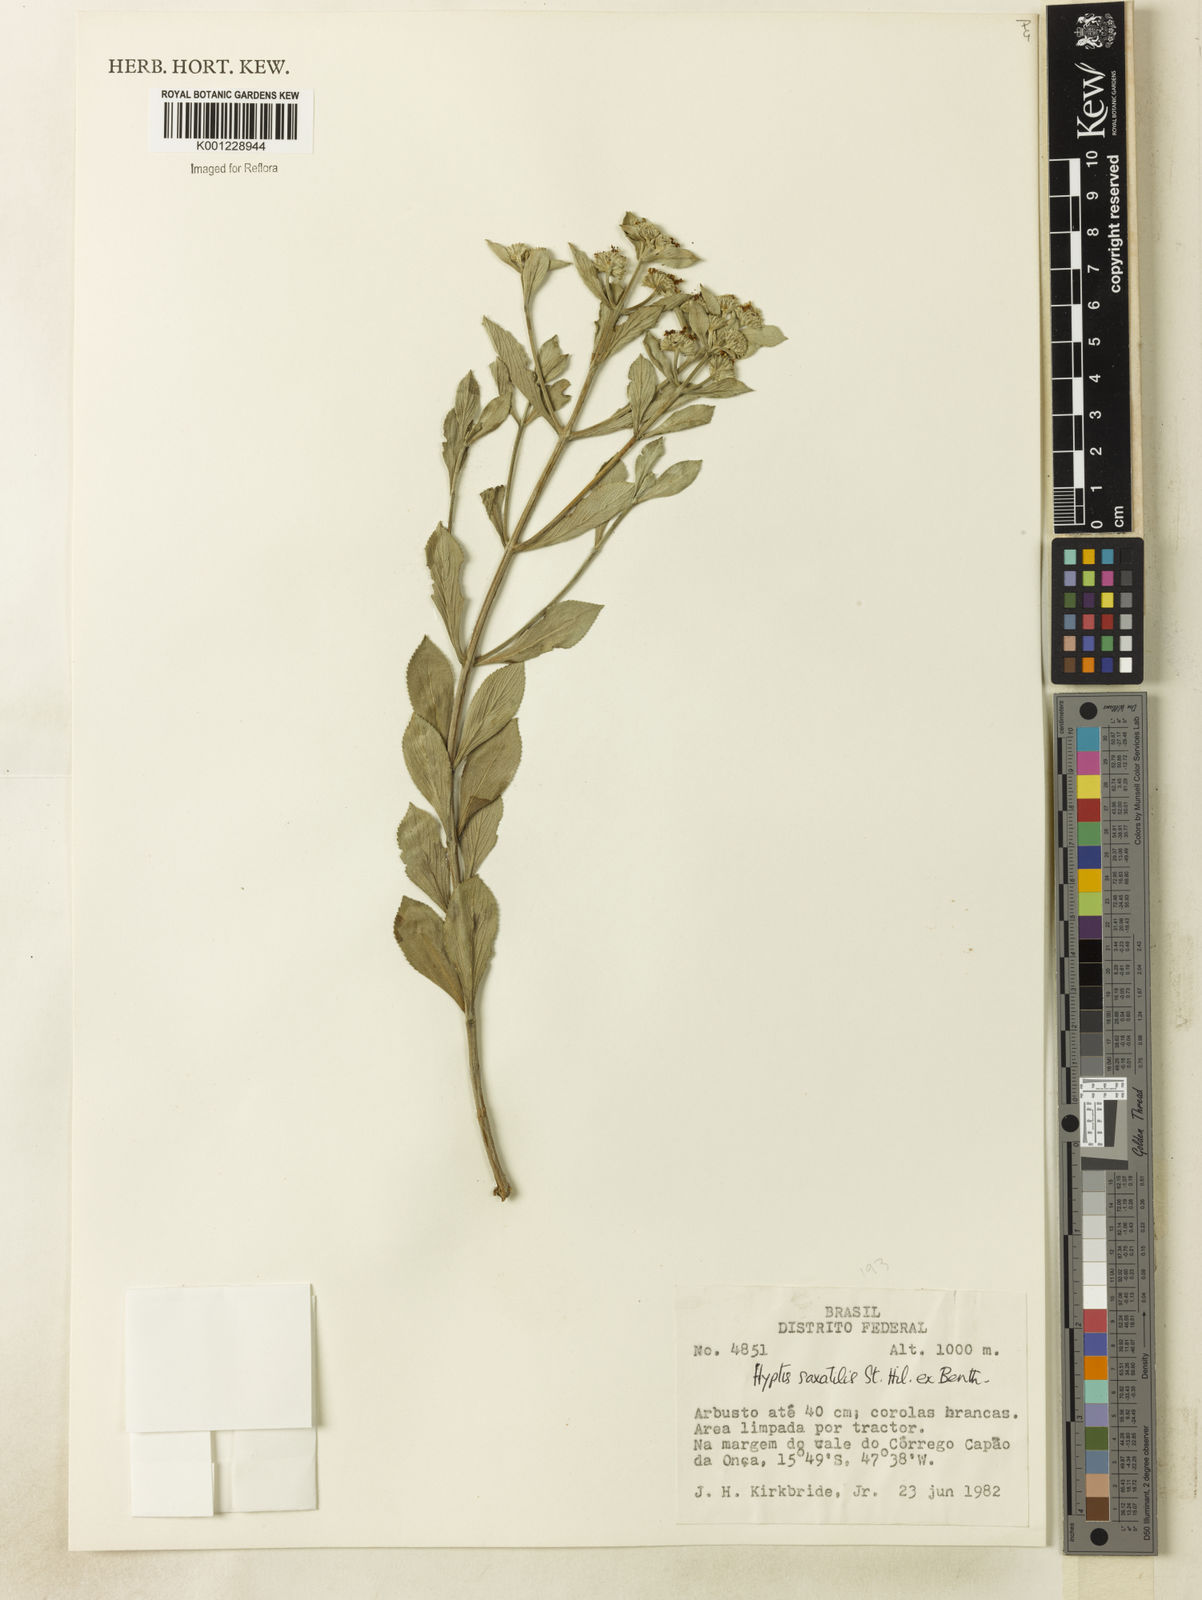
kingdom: Plantae
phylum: Tracheophyta
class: Magnoliopsida
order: Lamiales
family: Lamiaceae
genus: Hyptis
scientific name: Hyptis saxatilis
